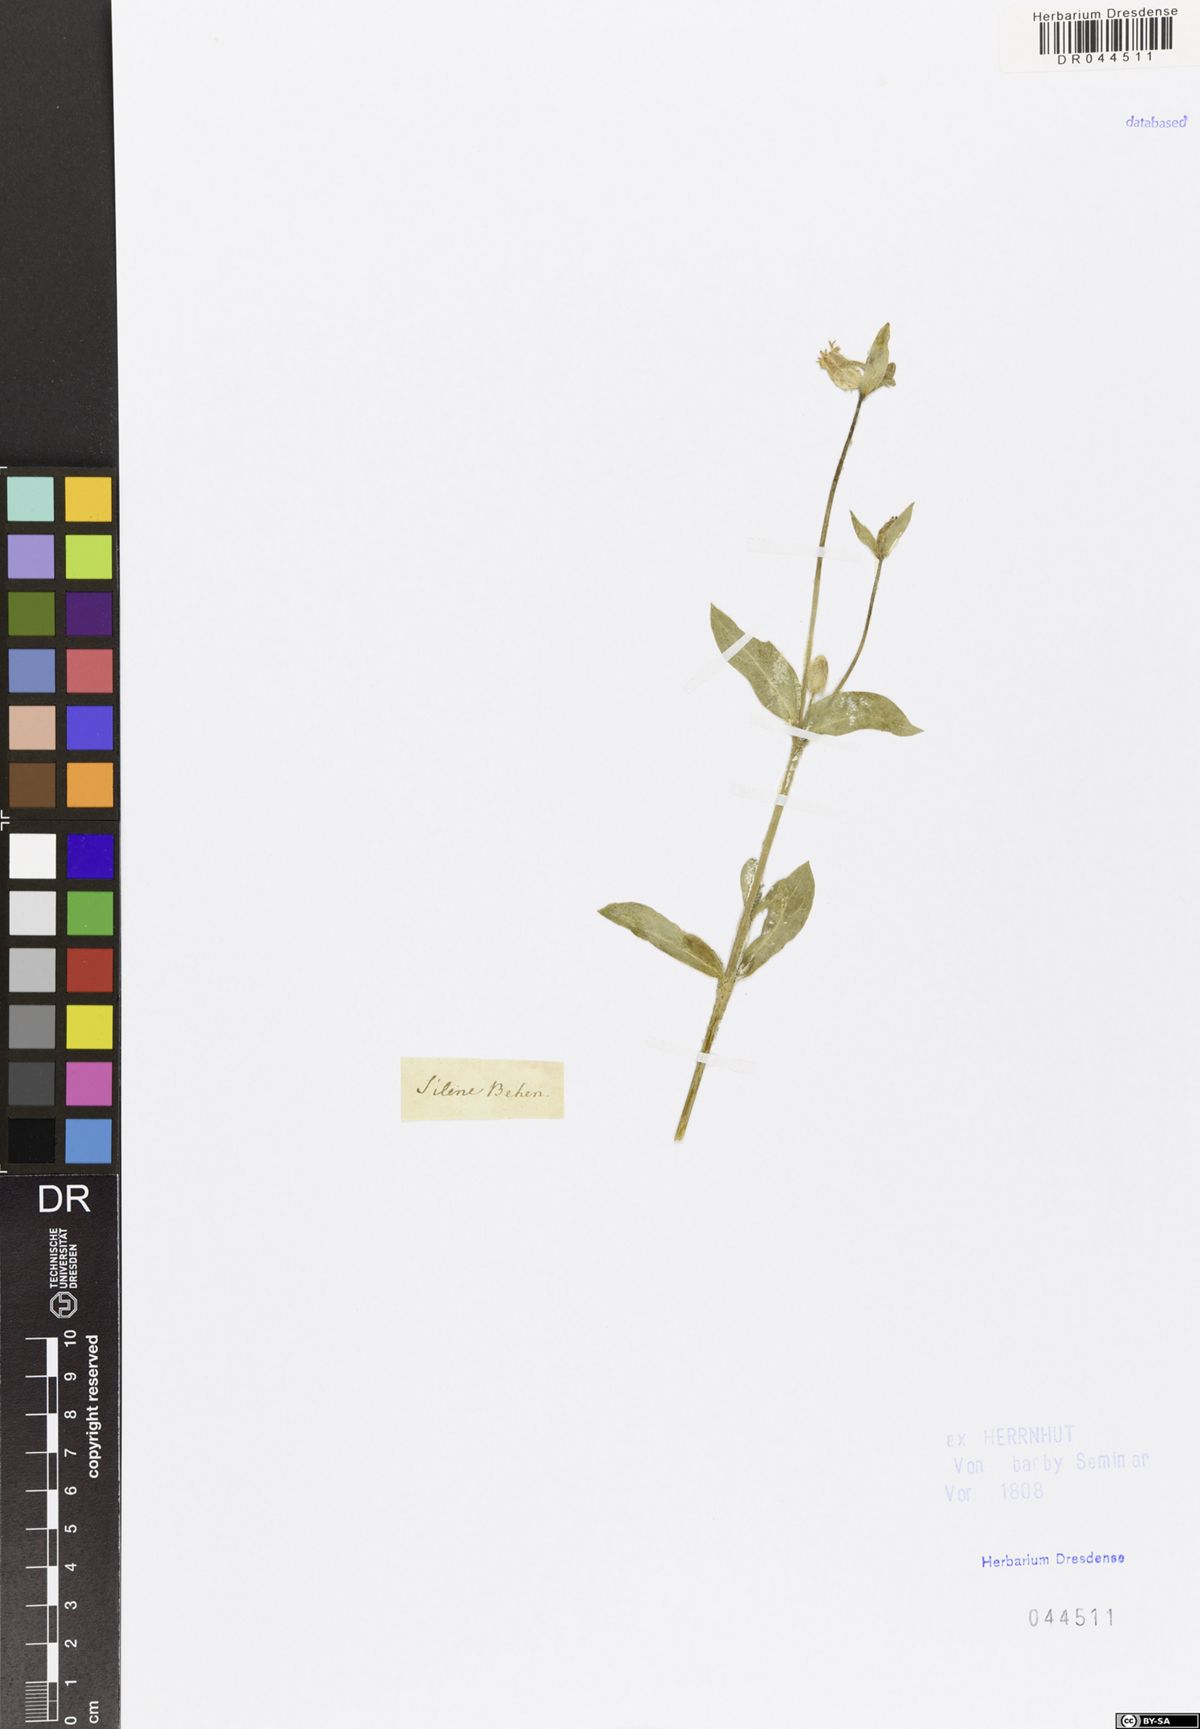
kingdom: Plantae
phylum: Tracheophyta
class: Magnoliopsida
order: Caryophyllales
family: Caryophyllaceae
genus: Silene
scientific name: Silene vulgaris
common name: Bladder campion
